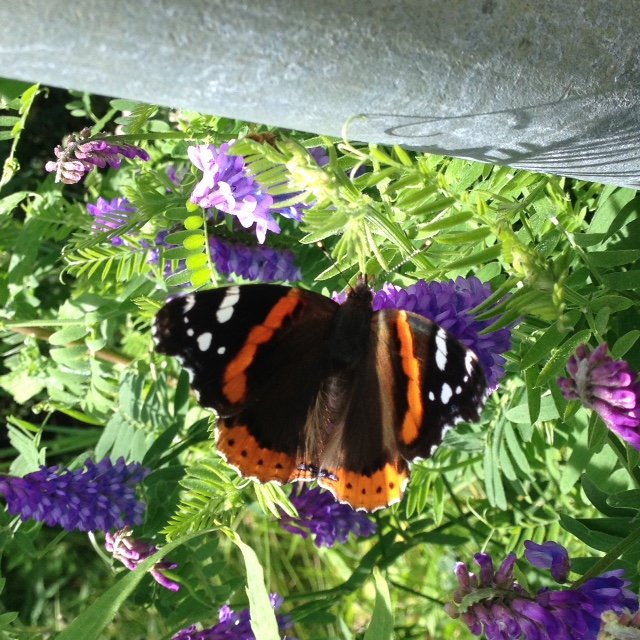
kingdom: Animalia
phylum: Arthropoda
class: Insecta
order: Lepidoptera
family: Nymphalidae
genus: Vanessa
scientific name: Vanessa atalanta
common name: Red Admiral
